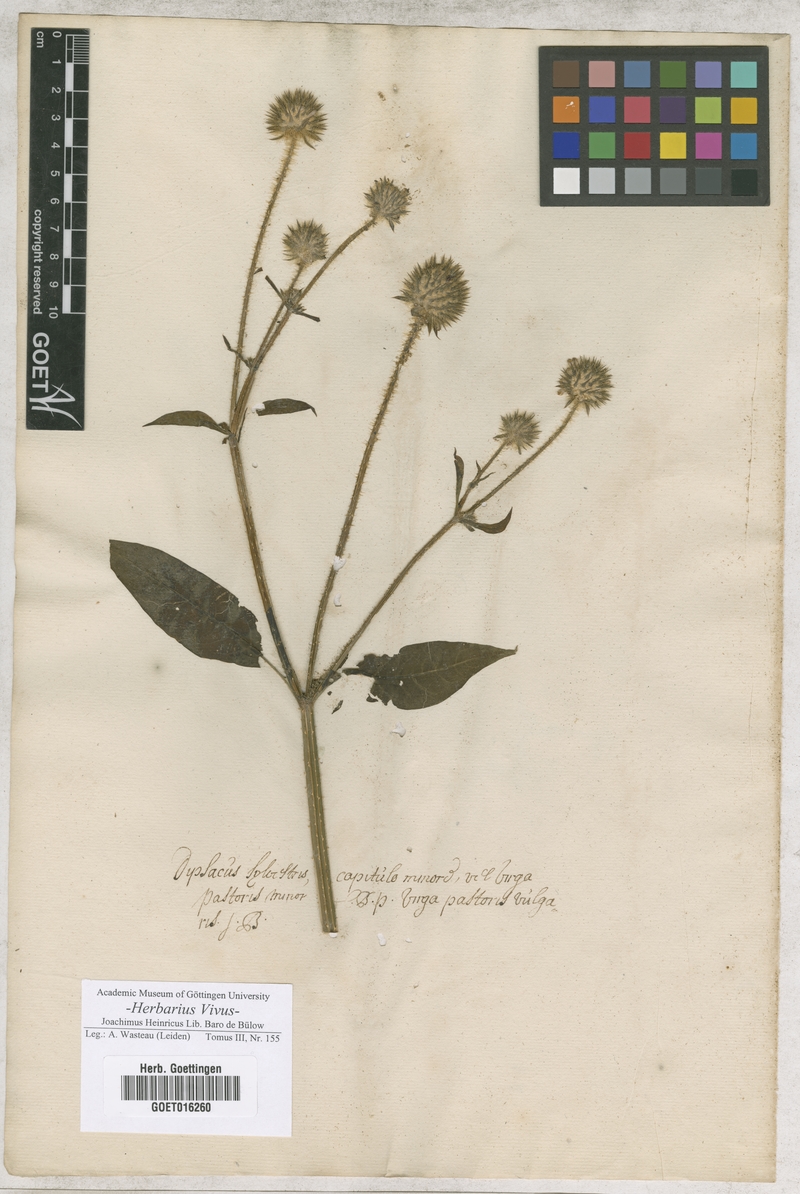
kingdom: Plantae
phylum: Tracheophyta
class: Magnoliopsida
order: Dipsacales
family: Caprifoliaceae
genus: Dipsacus
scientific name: Dipsacus pilosus
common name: Small teasel
